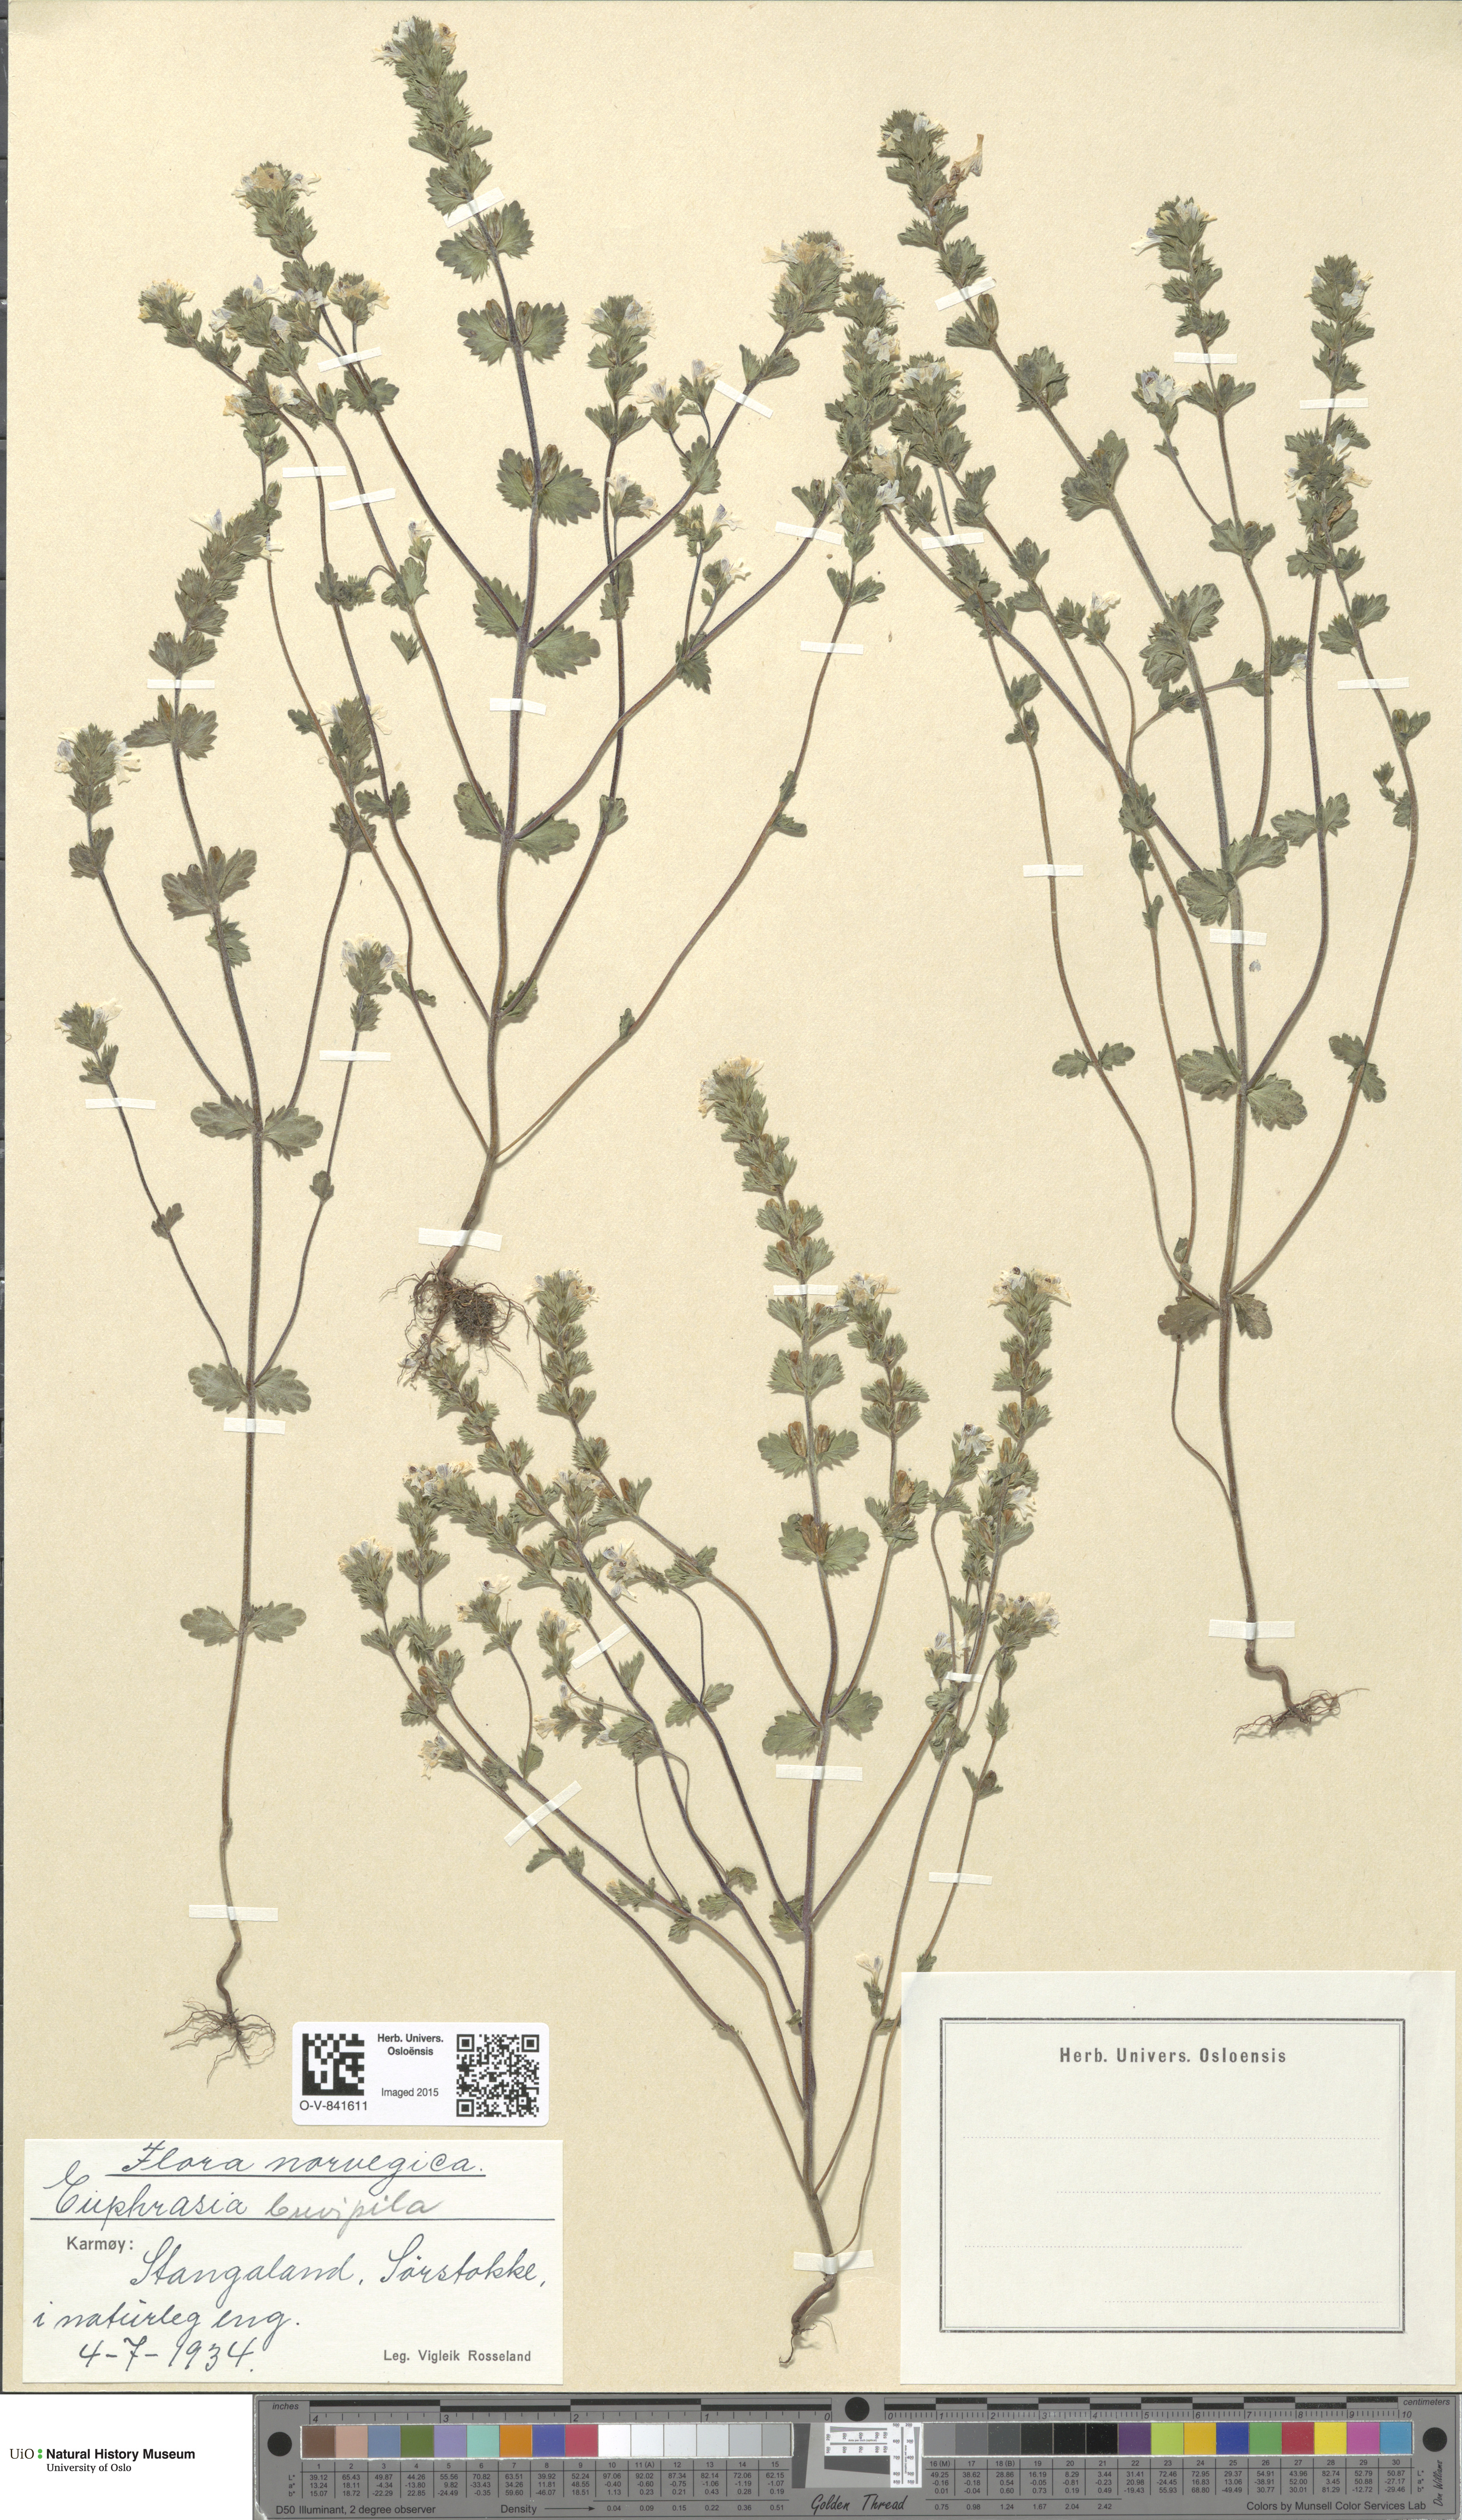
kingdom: Plantae
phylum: Tracheophyta
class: Magnoliopsida
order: Lamiales
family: Orobanchaceae
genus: Euphrasia
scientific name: Euphrasia vernalis
